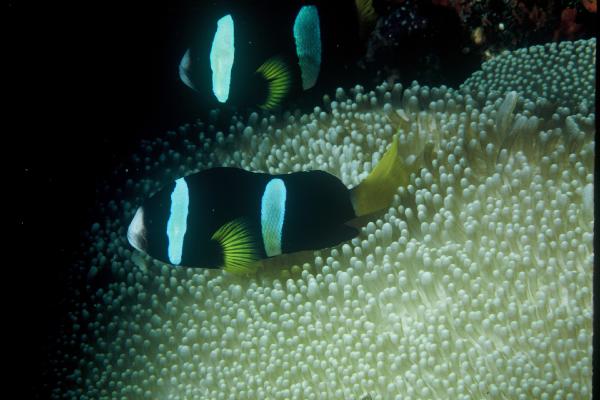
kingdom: Animalia
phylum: Chordata
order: Perciformes
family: Pomacentridae
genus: Amphiprion
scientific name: Amphiprion clarkii
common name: Clark's anemonefish
